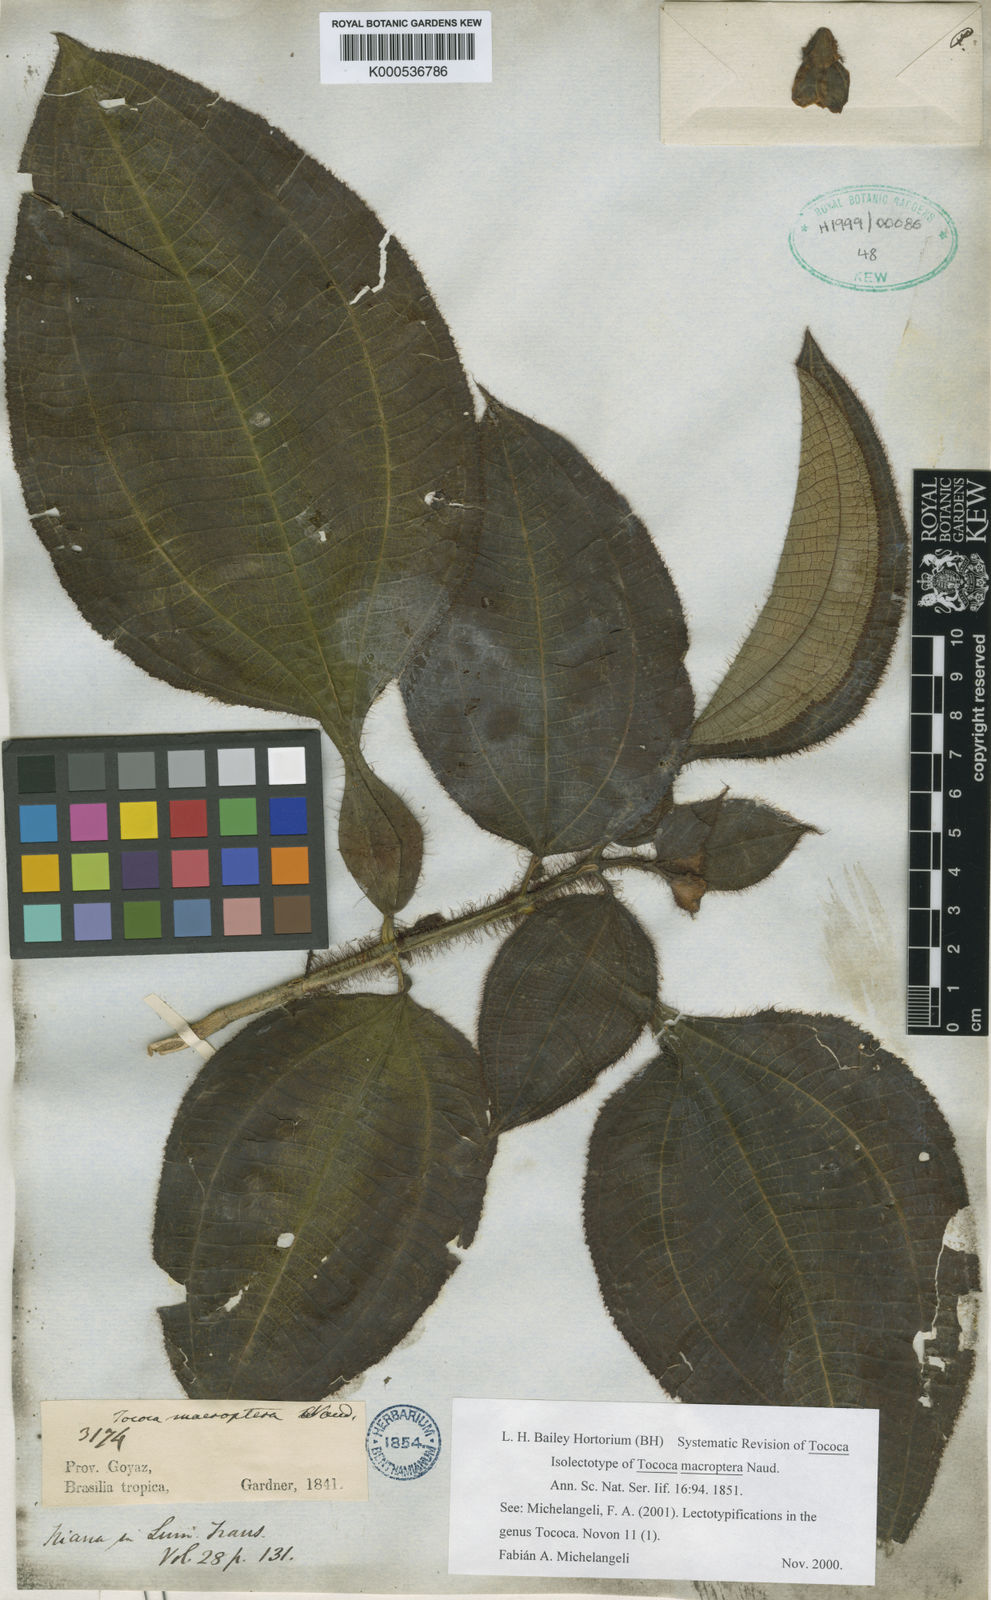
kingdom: Plantae
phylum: Tracheophyta
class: Magnoliopsida
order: Myrtales
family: Melastomataceae
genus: Miconia
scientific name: Miconia macroptera
